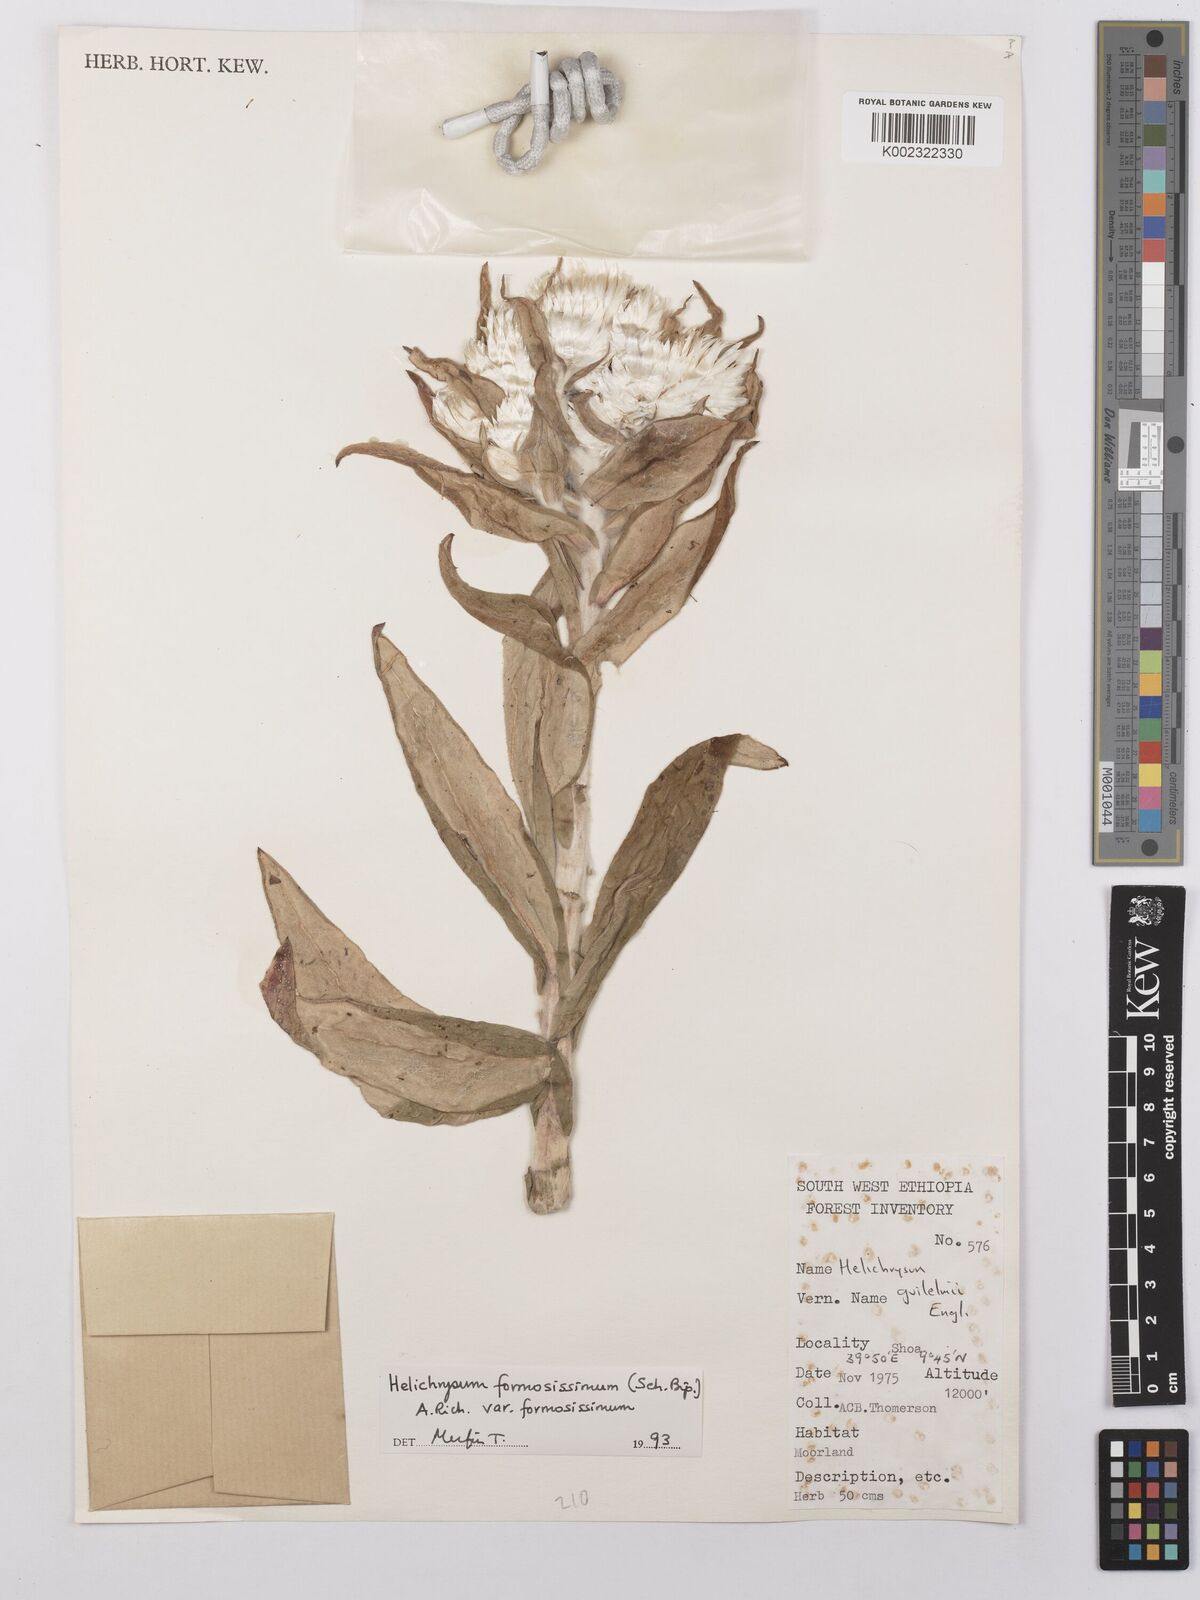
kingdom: Plantae
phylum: Tracheophyta
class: Magnoliopsida
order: Asterales
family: Asteraceae
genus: Helichrysum
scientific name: Helichrysum formosissimum
